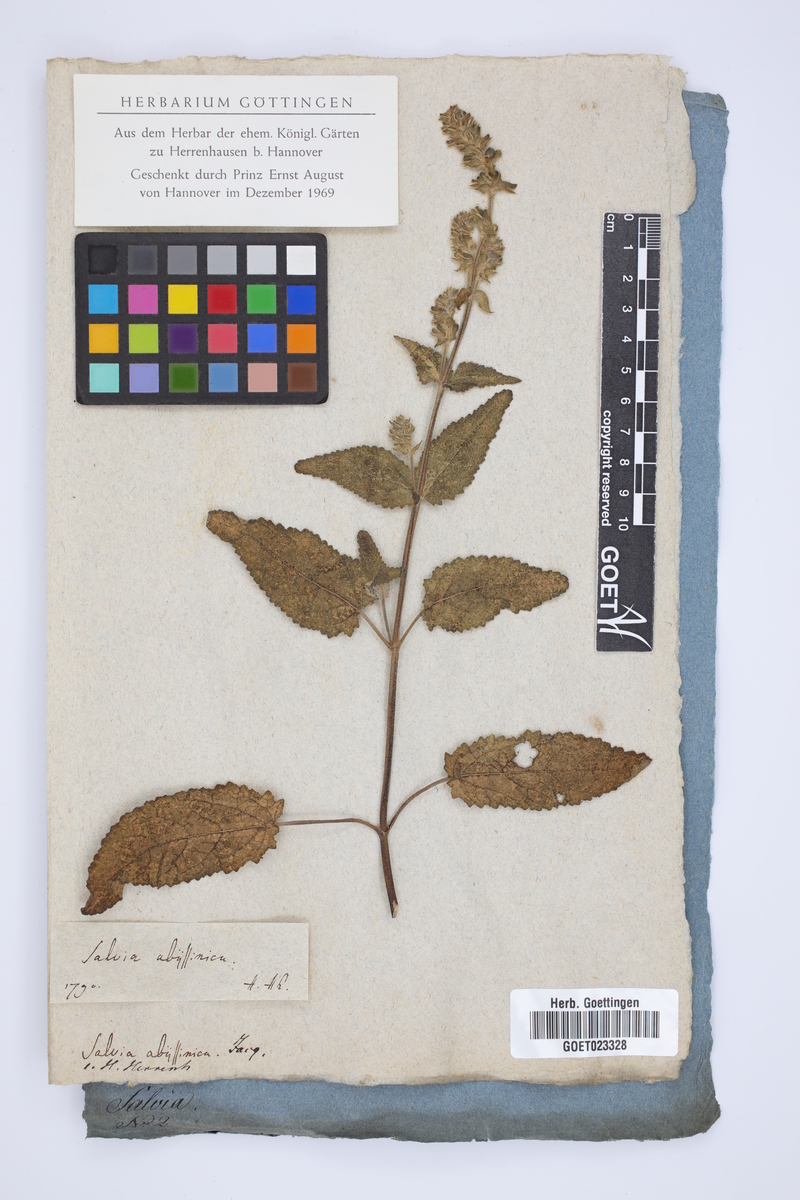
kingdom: Plantae
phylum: Tracheophyta
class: Magnoliopsida
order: Lamiales
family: Lamiaceae
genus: Salvia
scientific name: Salvia nilotica
